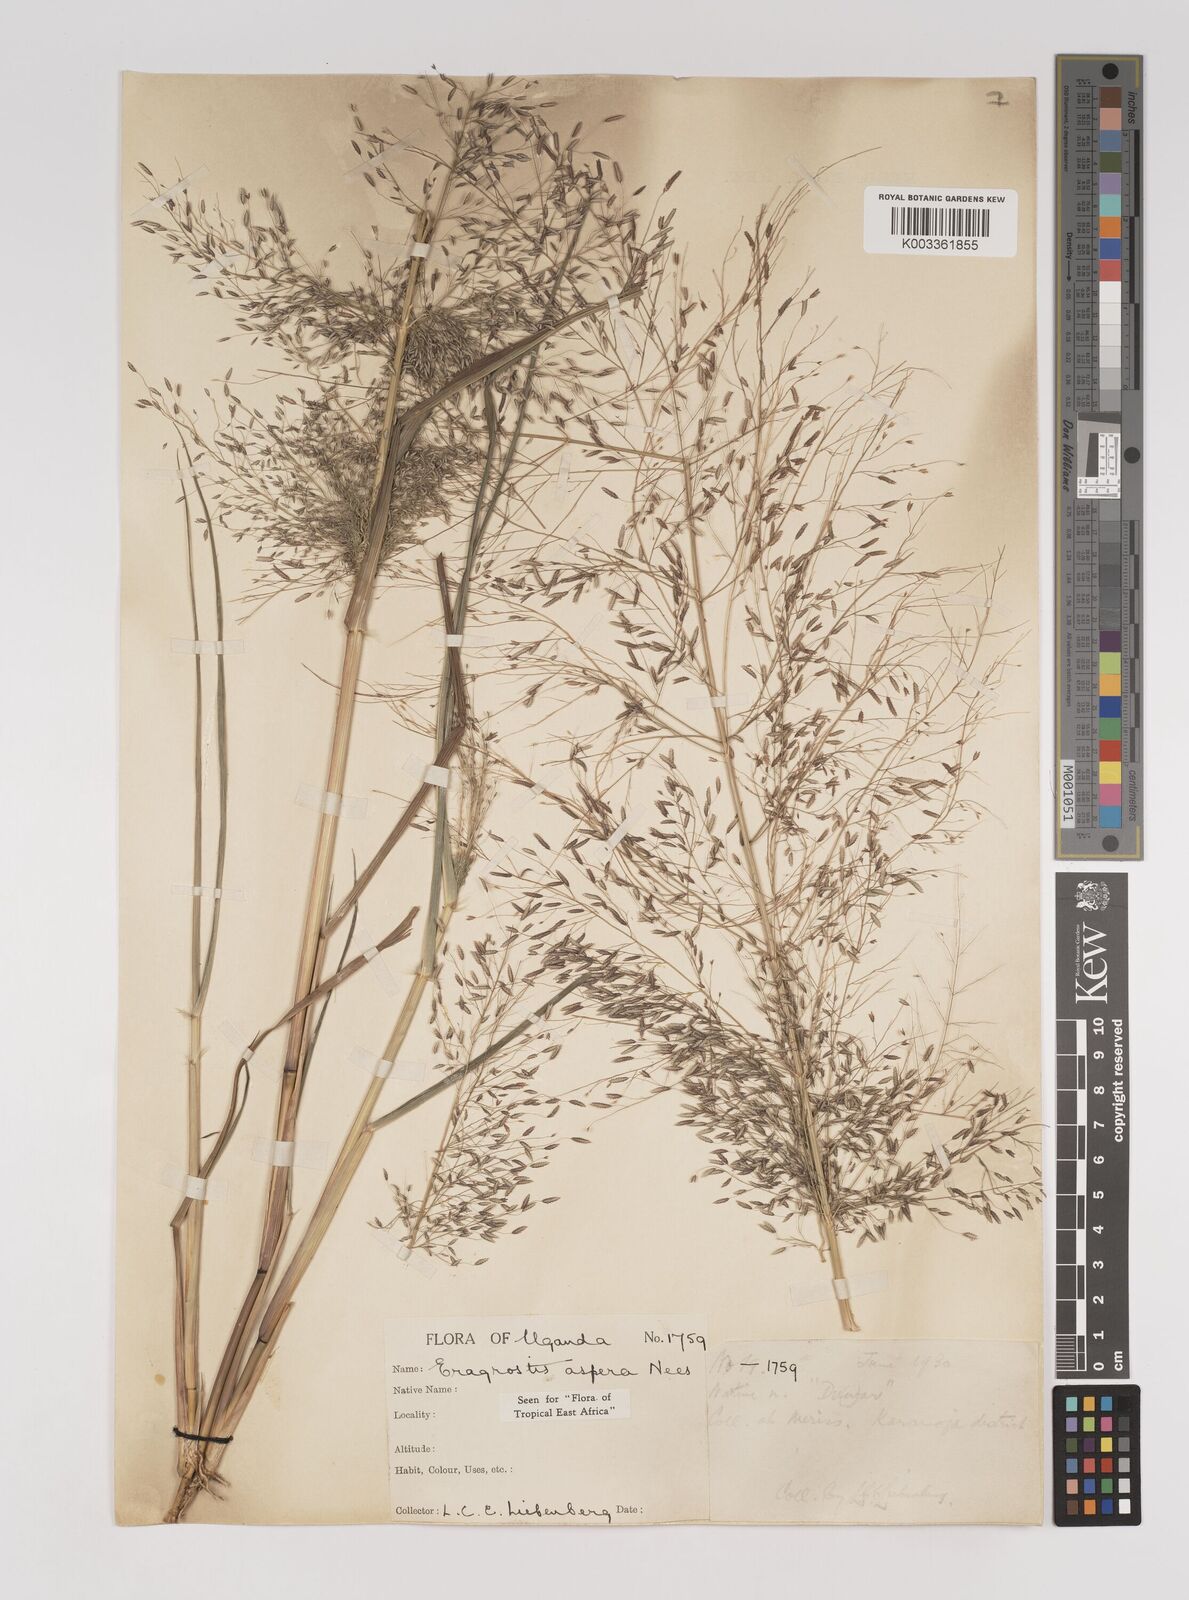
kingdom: Plantae
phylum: Tracheophyta
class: Liliopsida
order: Poales
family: Poaceae
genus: Eragrostis
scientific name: Eragrostis aspera
